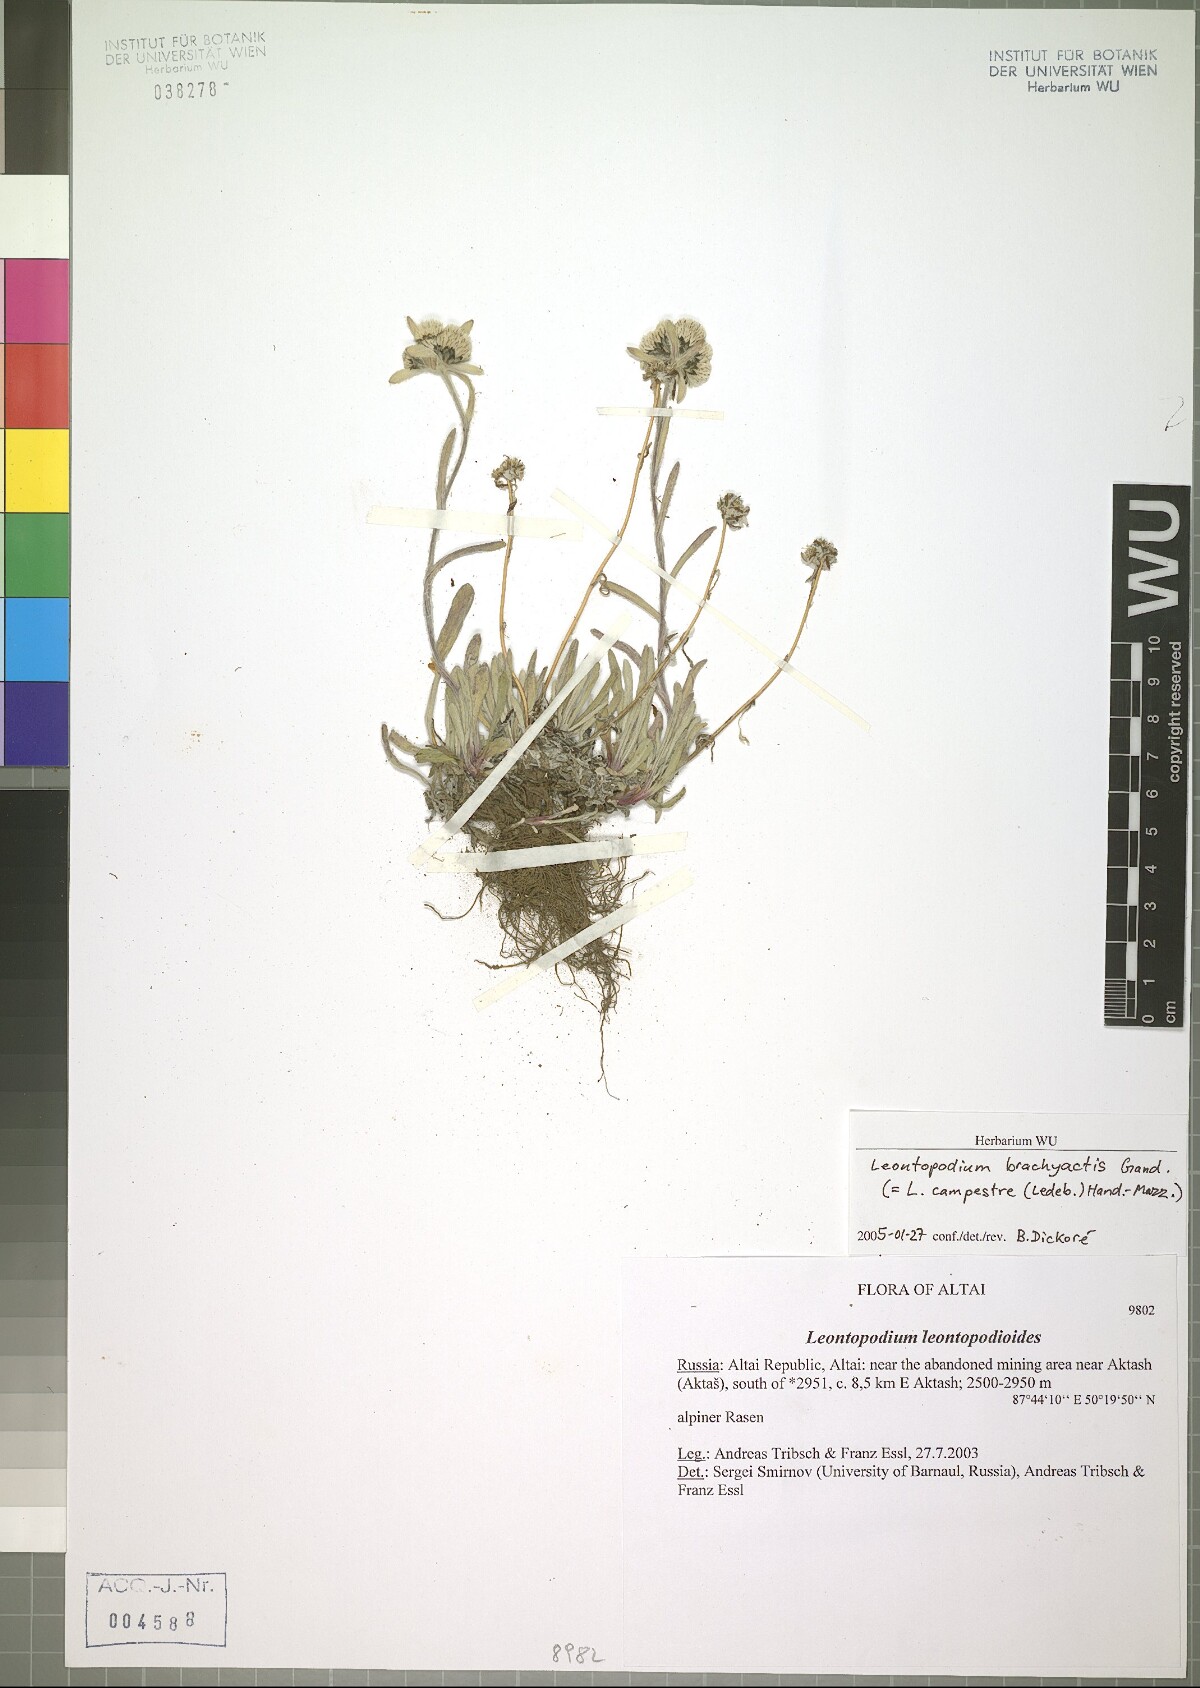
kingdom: Plantae
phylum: Tracheophyta
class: Magnoliopsida
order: Asterales
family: Asteraceae
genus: Leontopodium
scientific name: Leontopodium brachyactis
